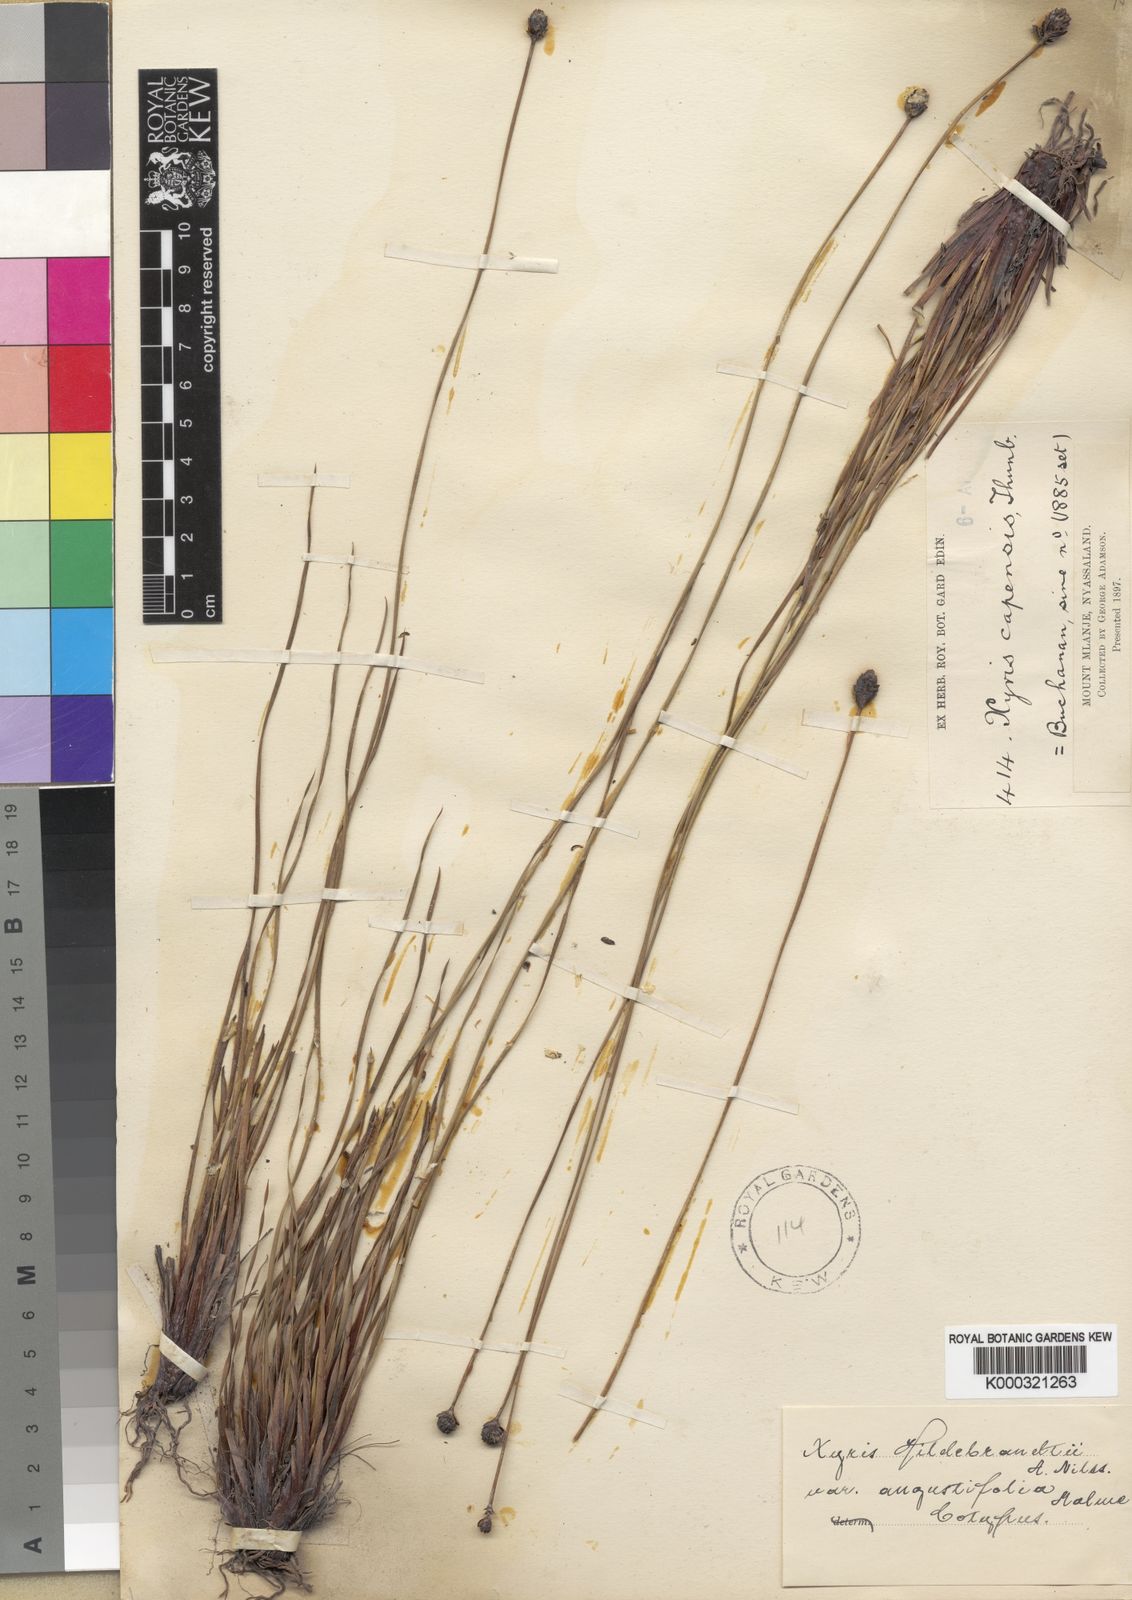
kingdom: Plantae
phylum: Tracheophyta
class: Liliopsida
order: Poales
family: Xyridaceae
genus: Xyris
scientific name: Xyris
